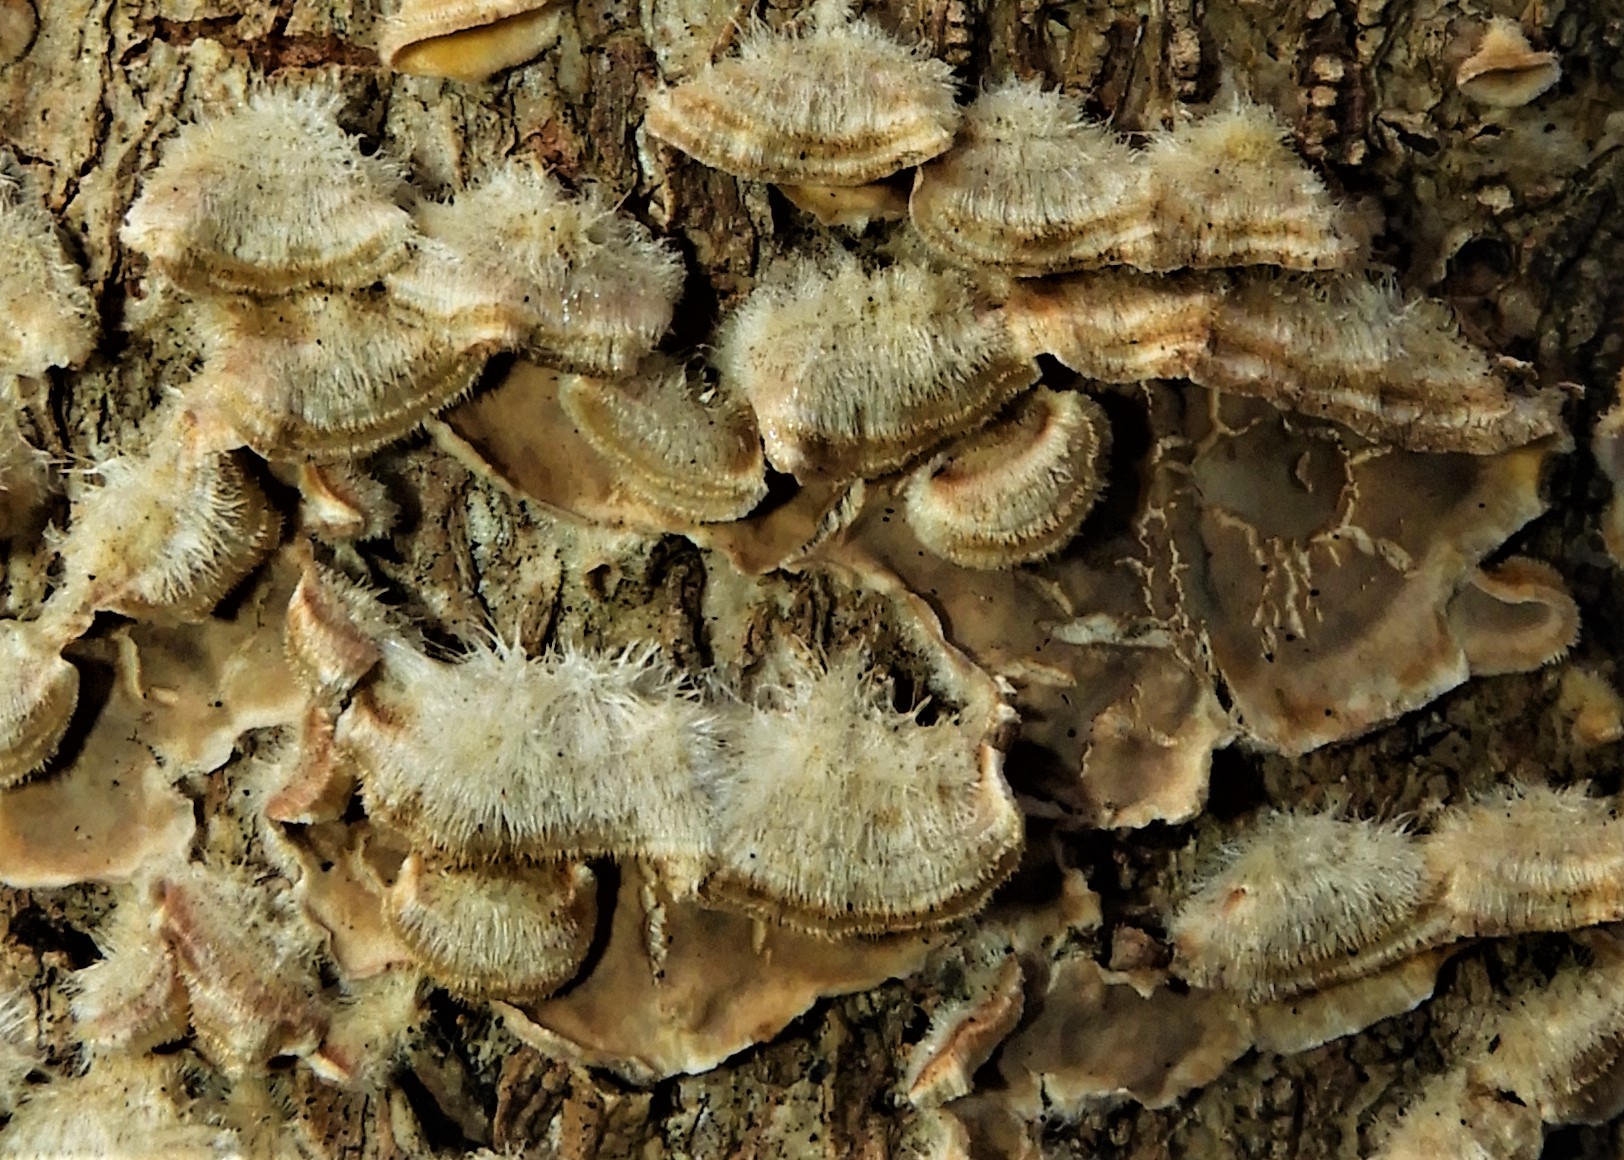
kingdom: Fungi
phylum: Basidiomycota
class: Agaricomycetes
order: Russulales
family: Stereaceae
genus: Stereum
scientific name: Stereum hirsutum
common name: håret lædersvamp
